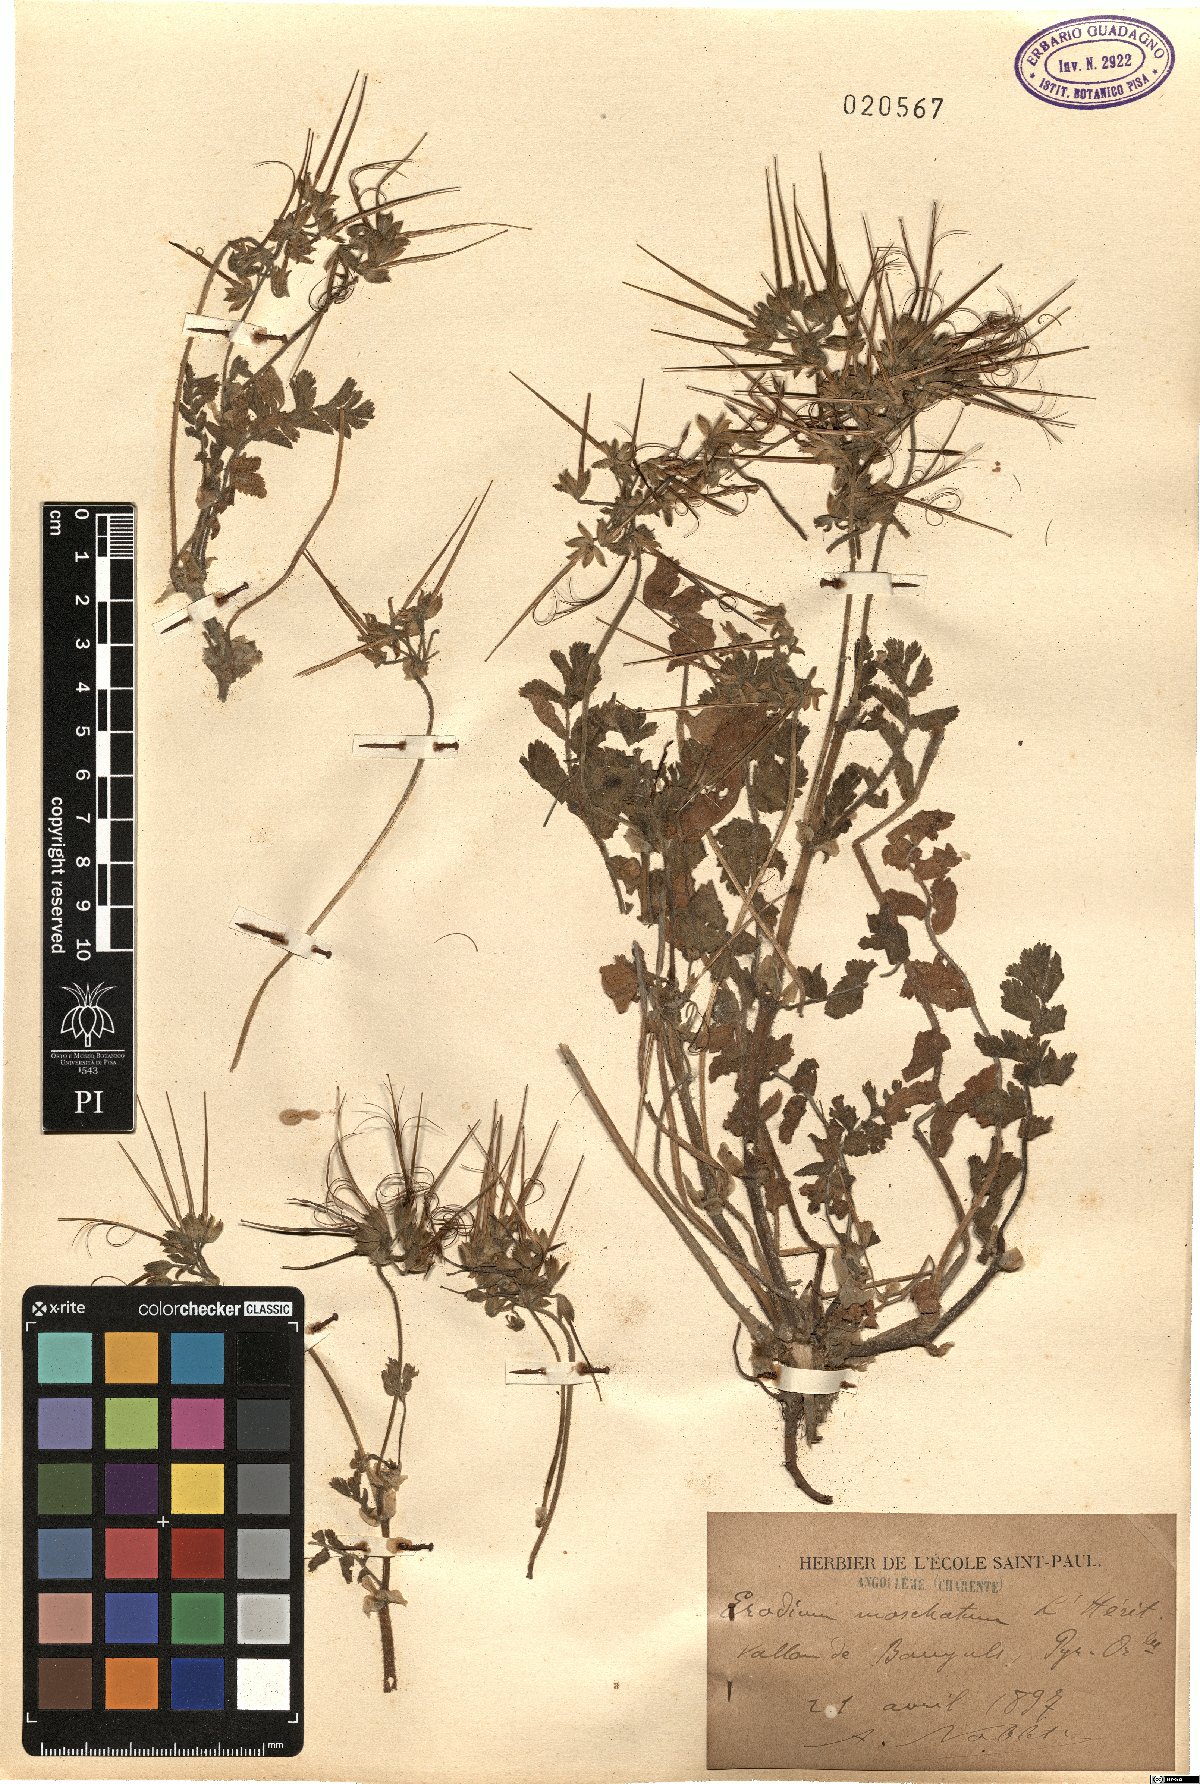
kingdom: Plantae
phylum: Tracheophyta
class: Magnoliopsida
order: Geraniales
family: Geraniaceae
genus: Erodium
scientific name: Erodium moschatum
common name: Musk stork's-bill
